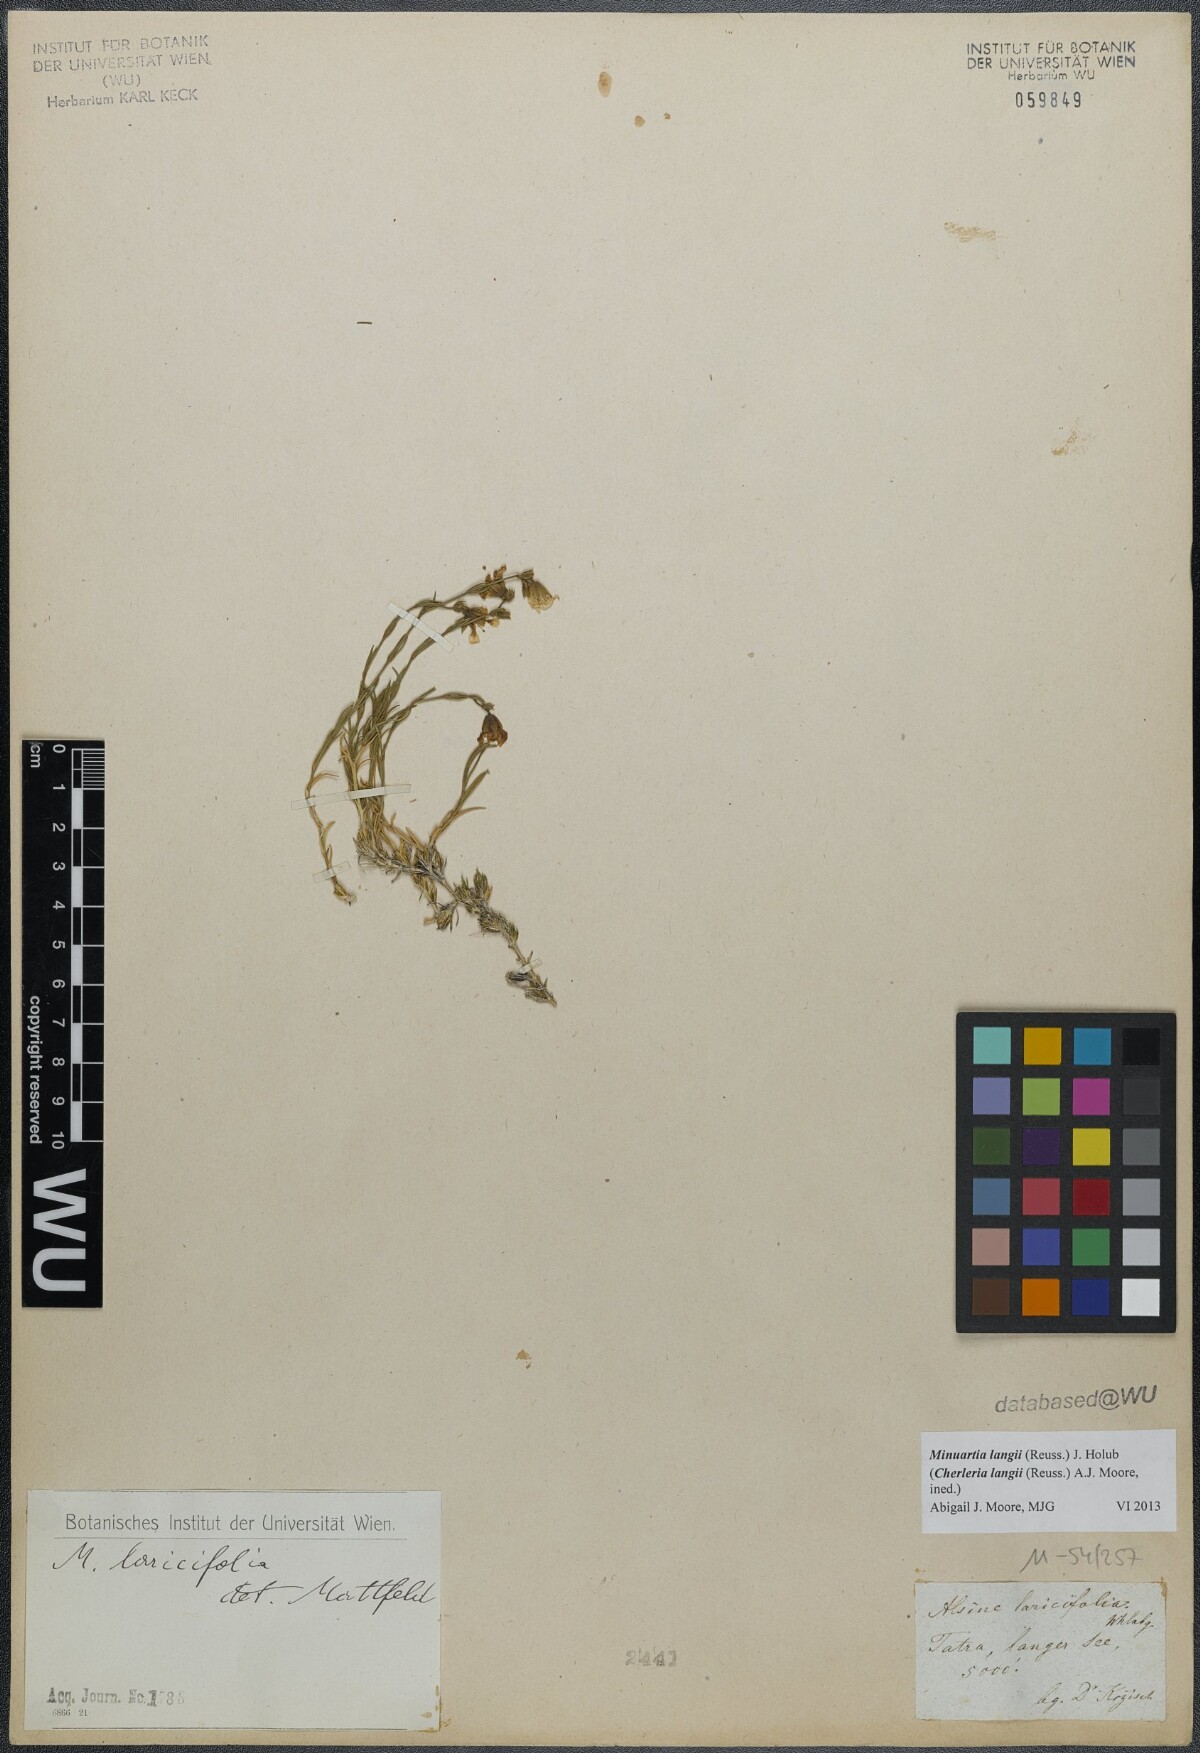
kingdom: Plantae
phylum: Tracheophyta
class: Magnoliopsida
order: Caryophyllales
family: Caryophyllaceae
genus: Cherleria
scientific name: Cherleria langii
